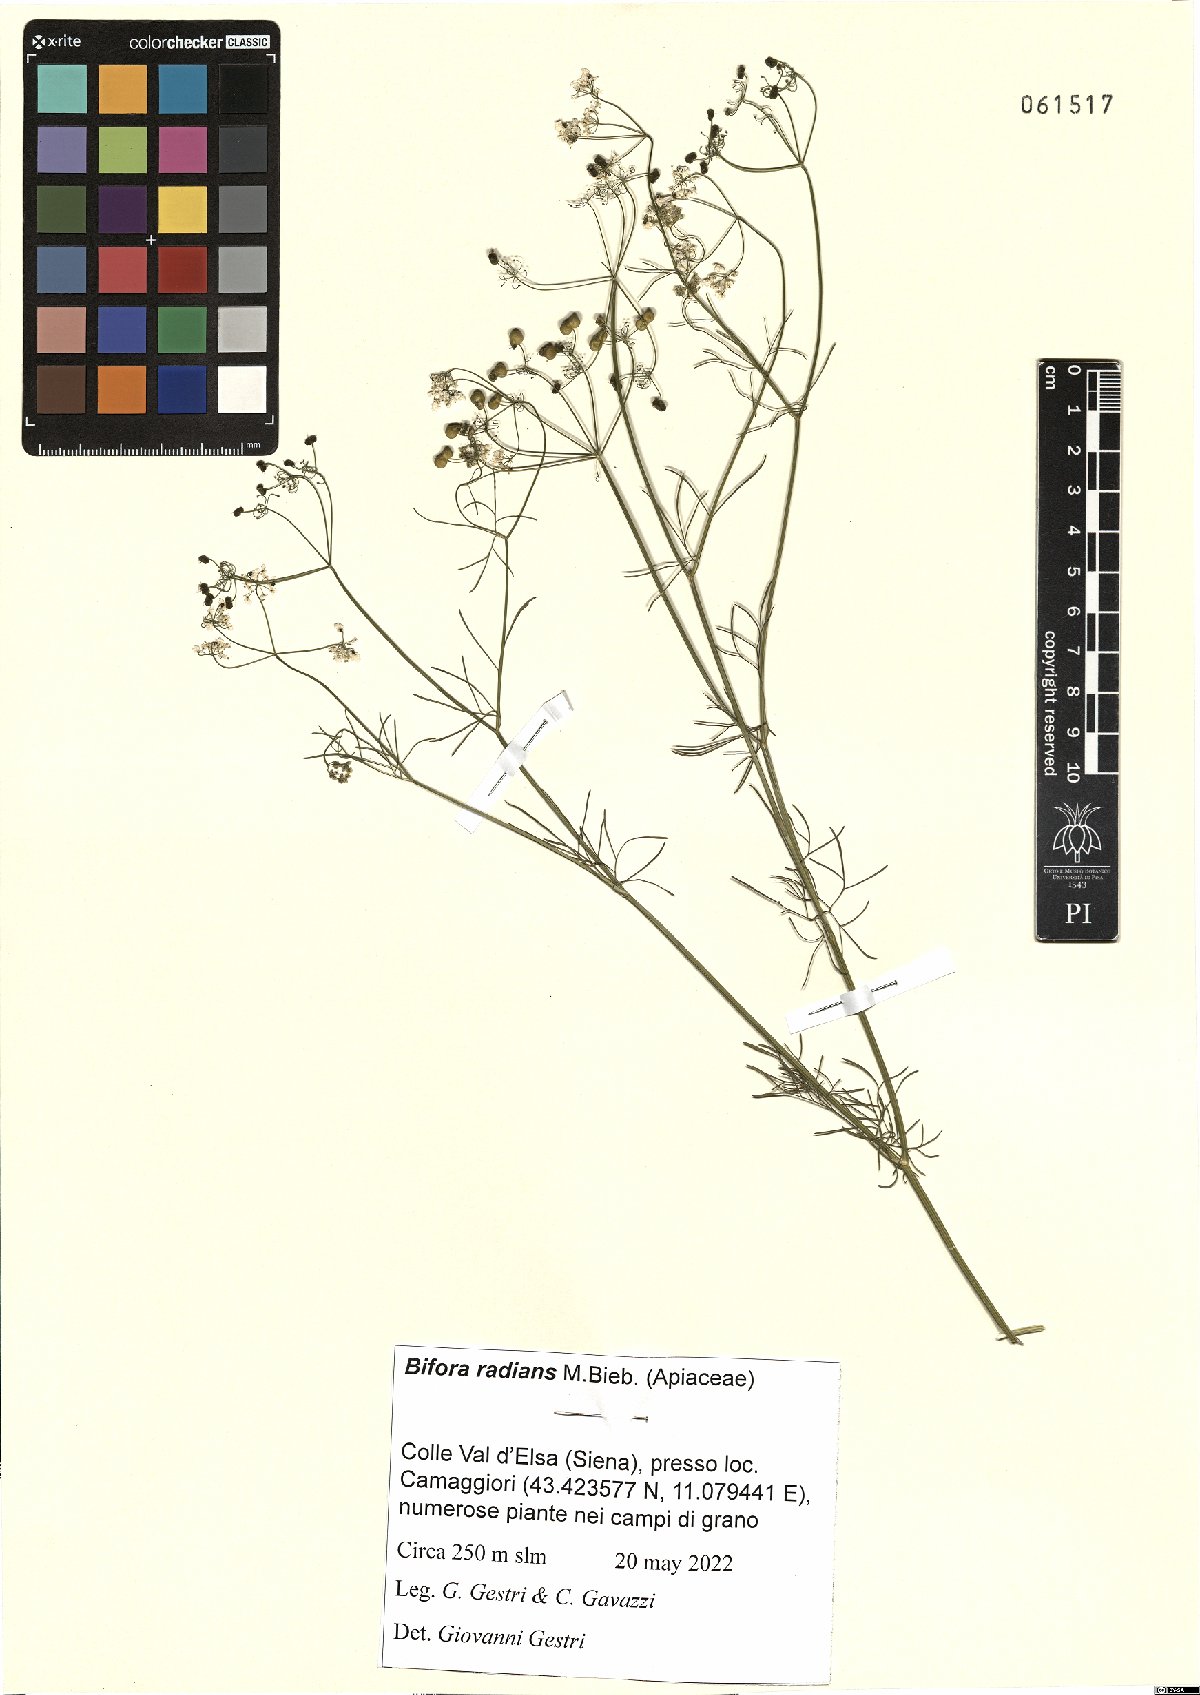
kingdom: Plantae
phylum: Tracheophyta
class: Magnoliopsida
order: Apiales
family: Apiaceae
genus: Bifora
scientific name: Bifora radians
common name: Wild bishop
